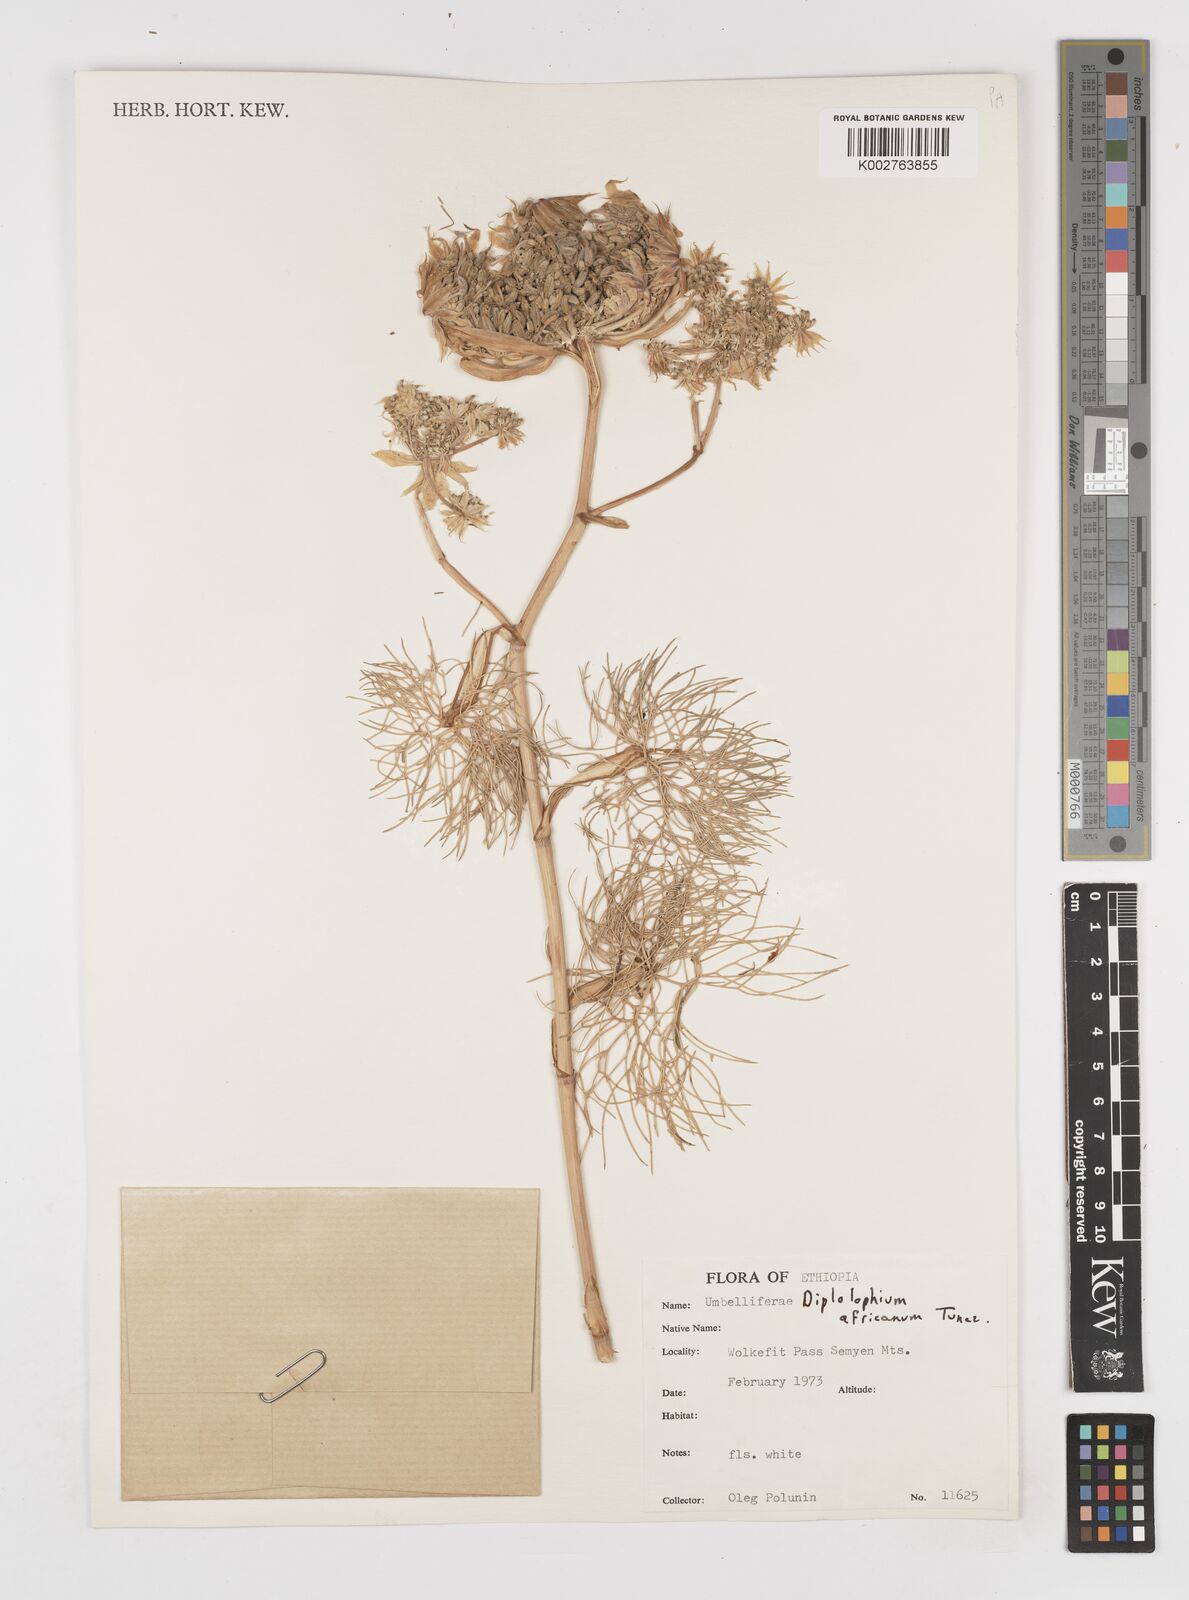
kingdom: Plantae
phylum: Tracheophyta
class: Magnoliopsida
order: Apiales
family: Apiaceae
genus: Diplolophium
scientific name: Diplolophium africanum
